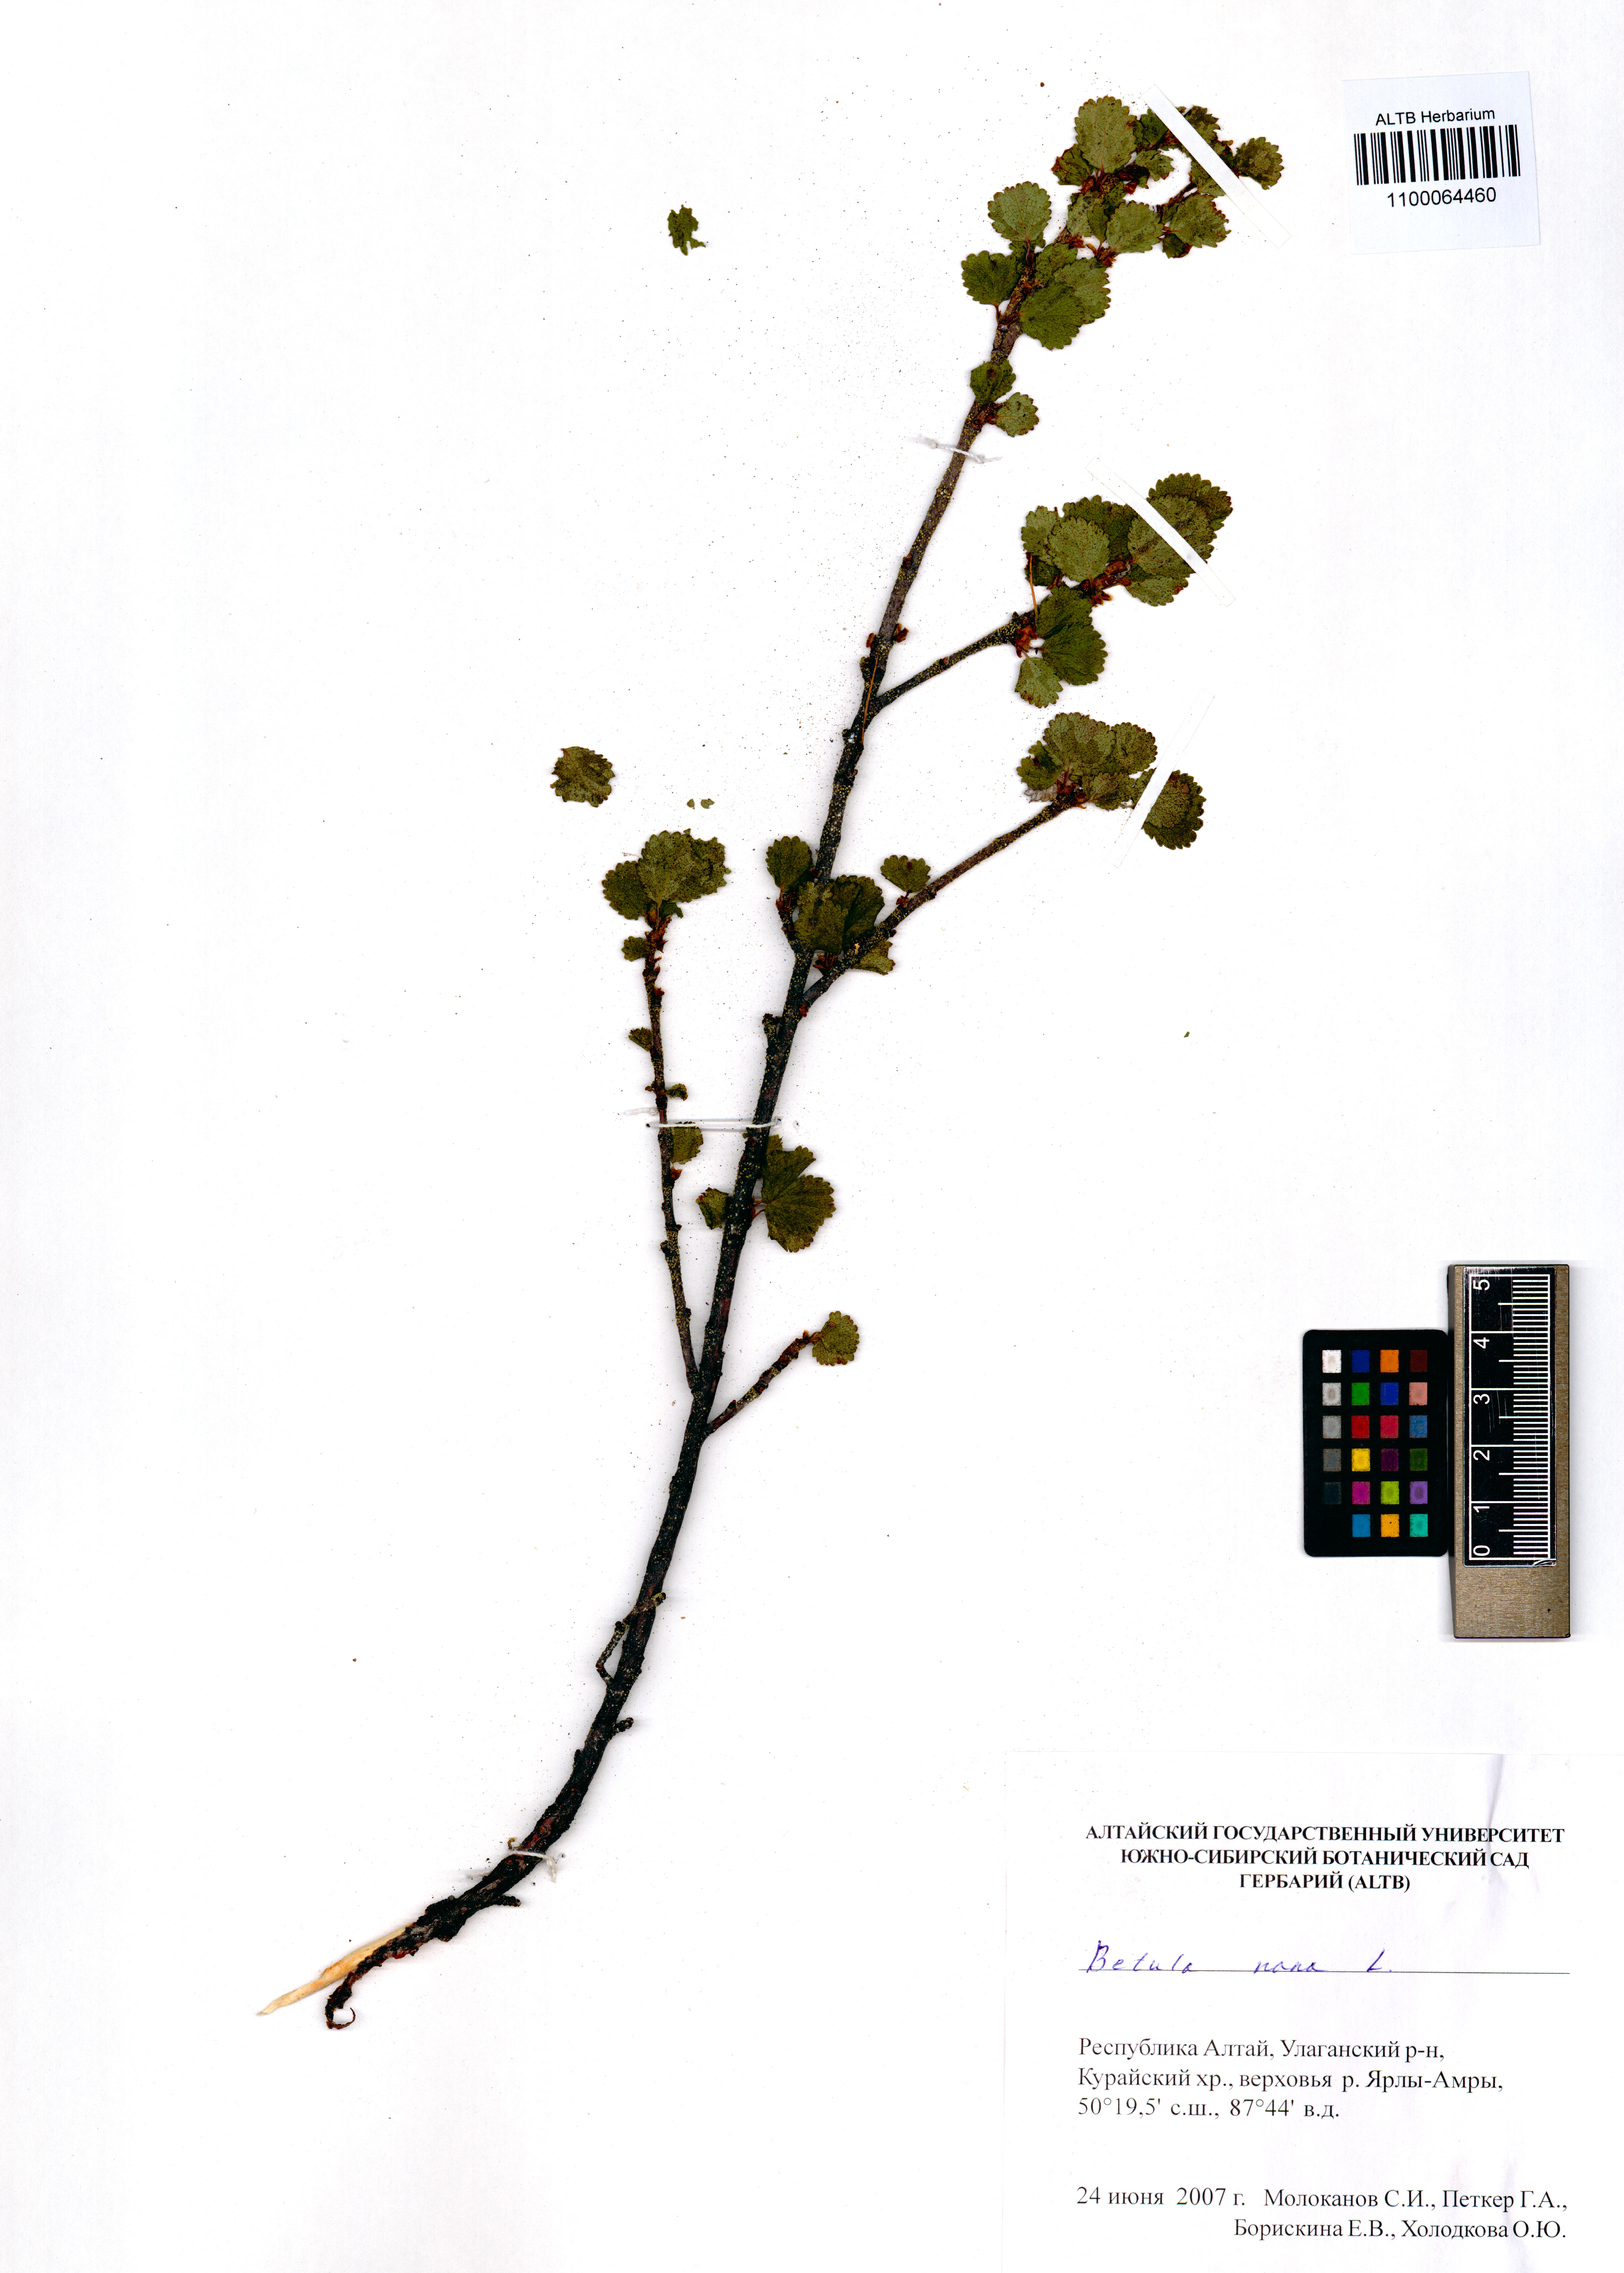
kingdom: Plantae
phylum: Tracheophyta
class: Magnoliopsida
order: Fagales
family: Betulaceae
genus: Betula
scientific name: Betula nana
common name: Arctic dwarf birch
